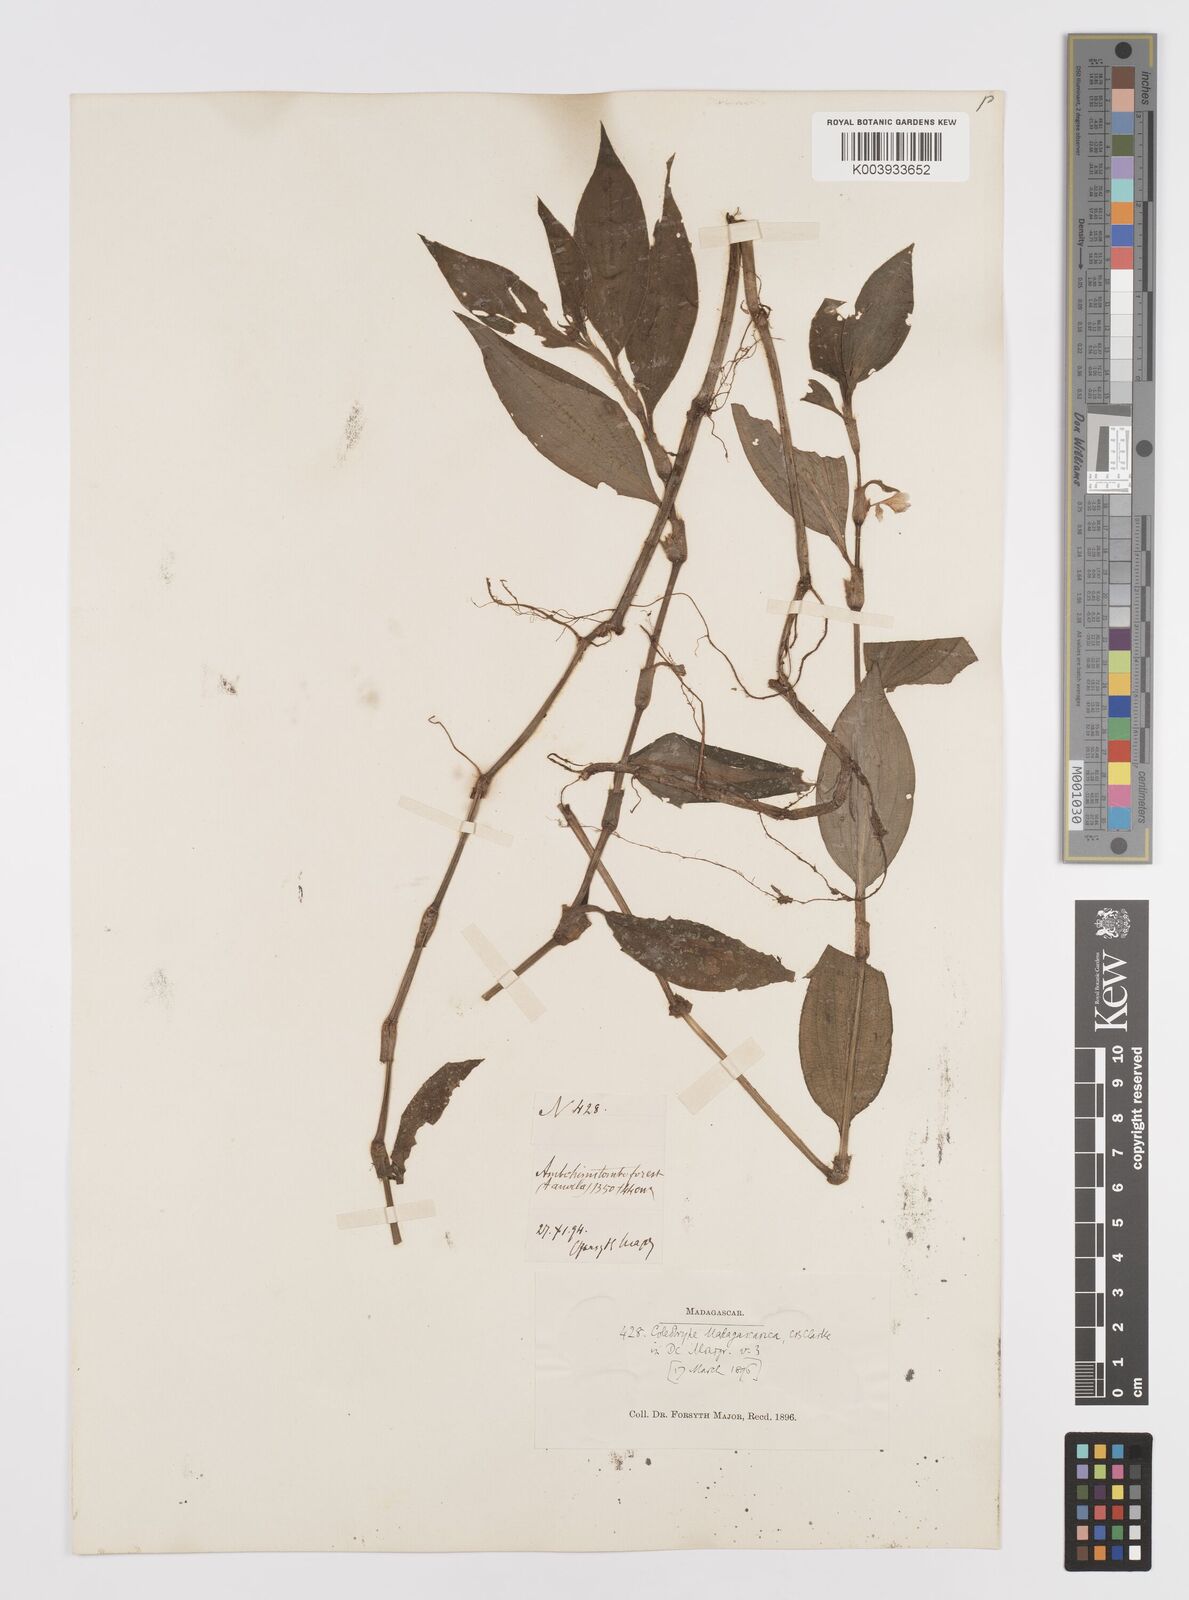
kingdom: Plantae
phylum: Tracheophyta
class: Liliopsida
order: Commelinales
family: Commelinaceae
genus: Coleotrype
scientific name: Coleotrype madagascarica
